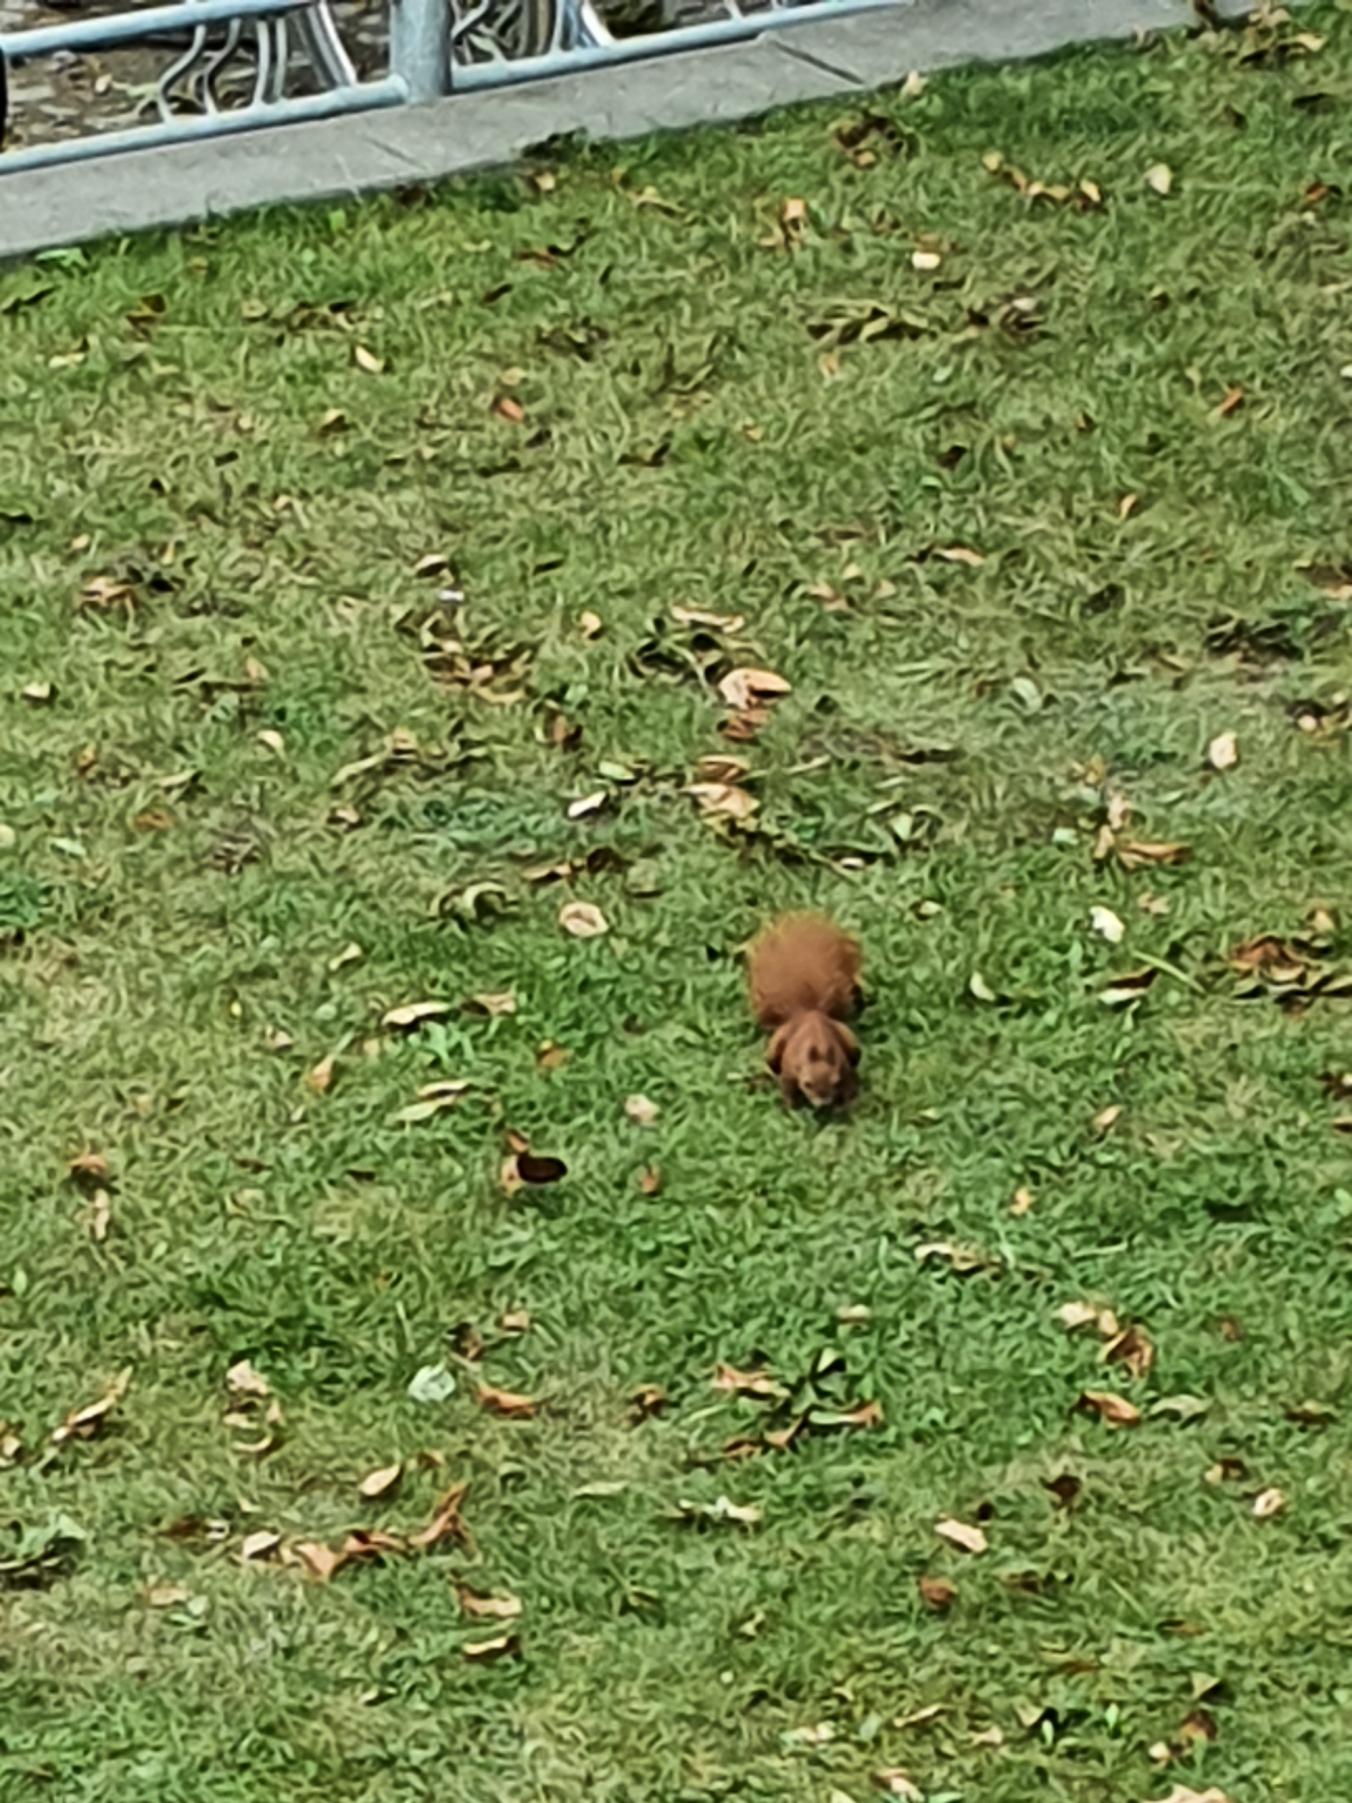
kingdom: Animalia
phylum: Chordata
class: Mammalia
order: Rodentia
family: Sciuridae
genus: Sciurus
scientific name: Sciurus vulgaris
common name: Egern
